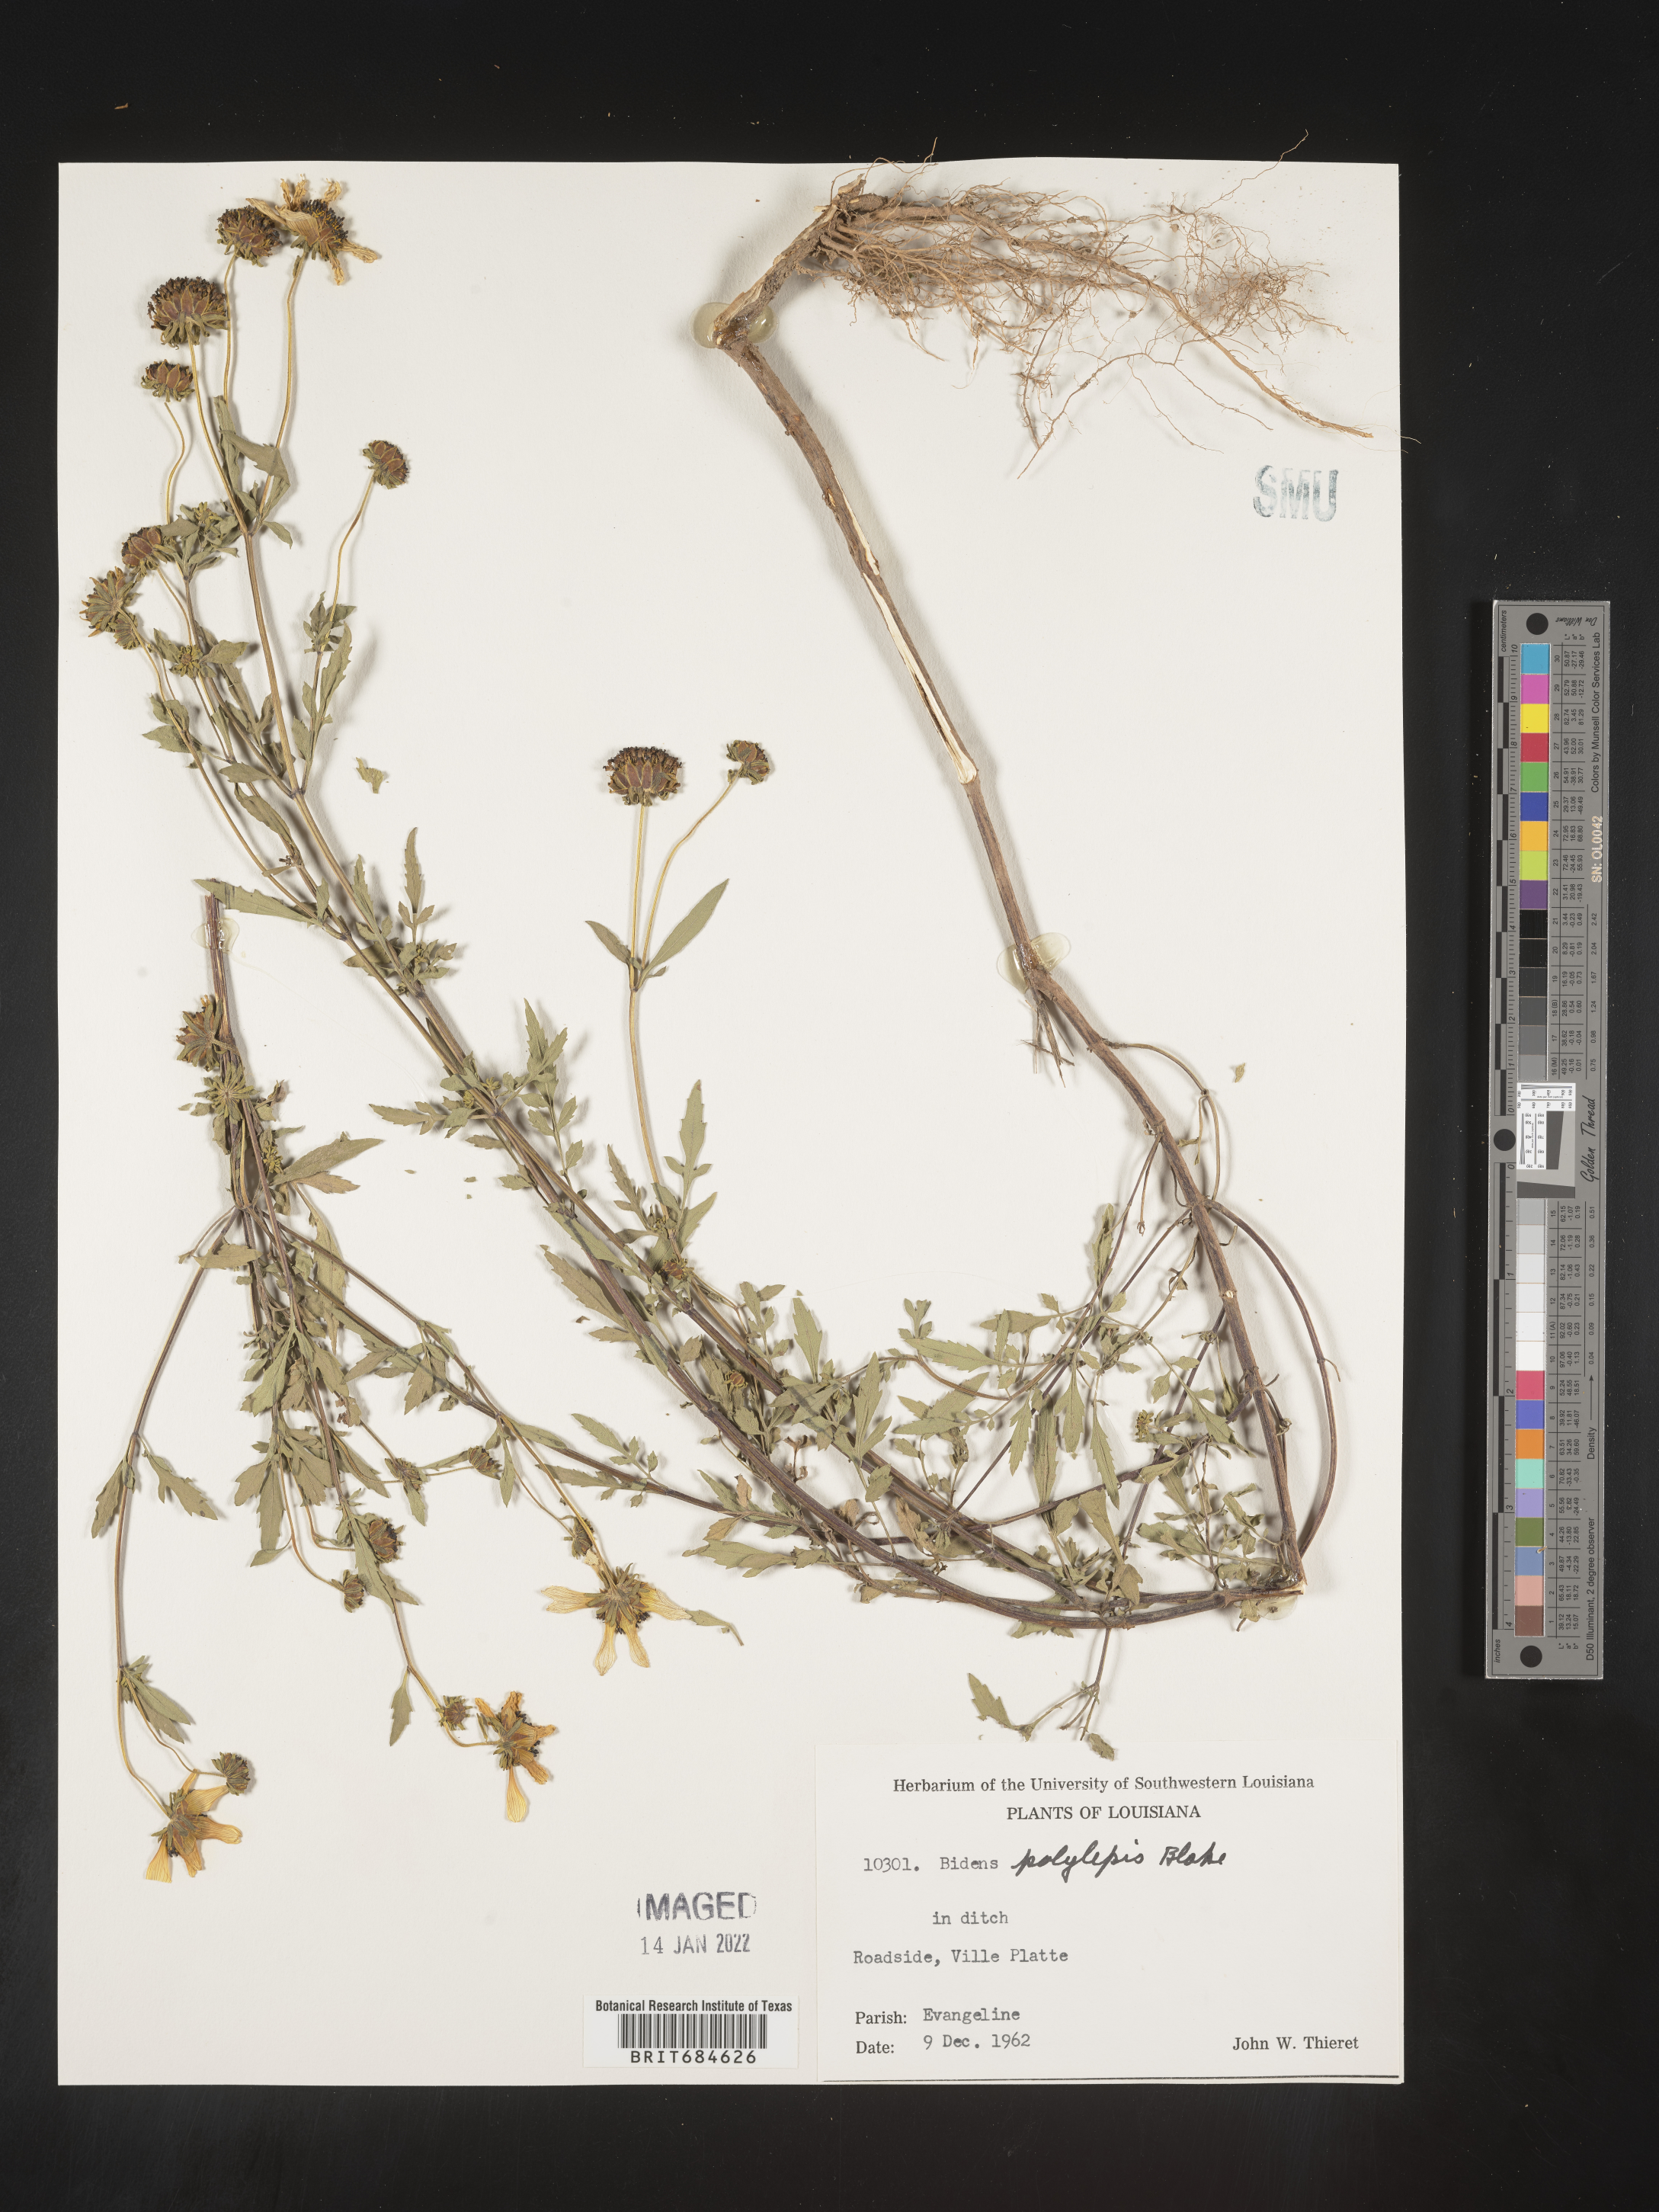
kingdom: Plantae
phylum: Tracheophyta
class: Magnoliopsida
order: Asterales
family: Asteraceae
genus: Bidens
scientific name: Bidens polylepis
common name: Awnless beggarticks
